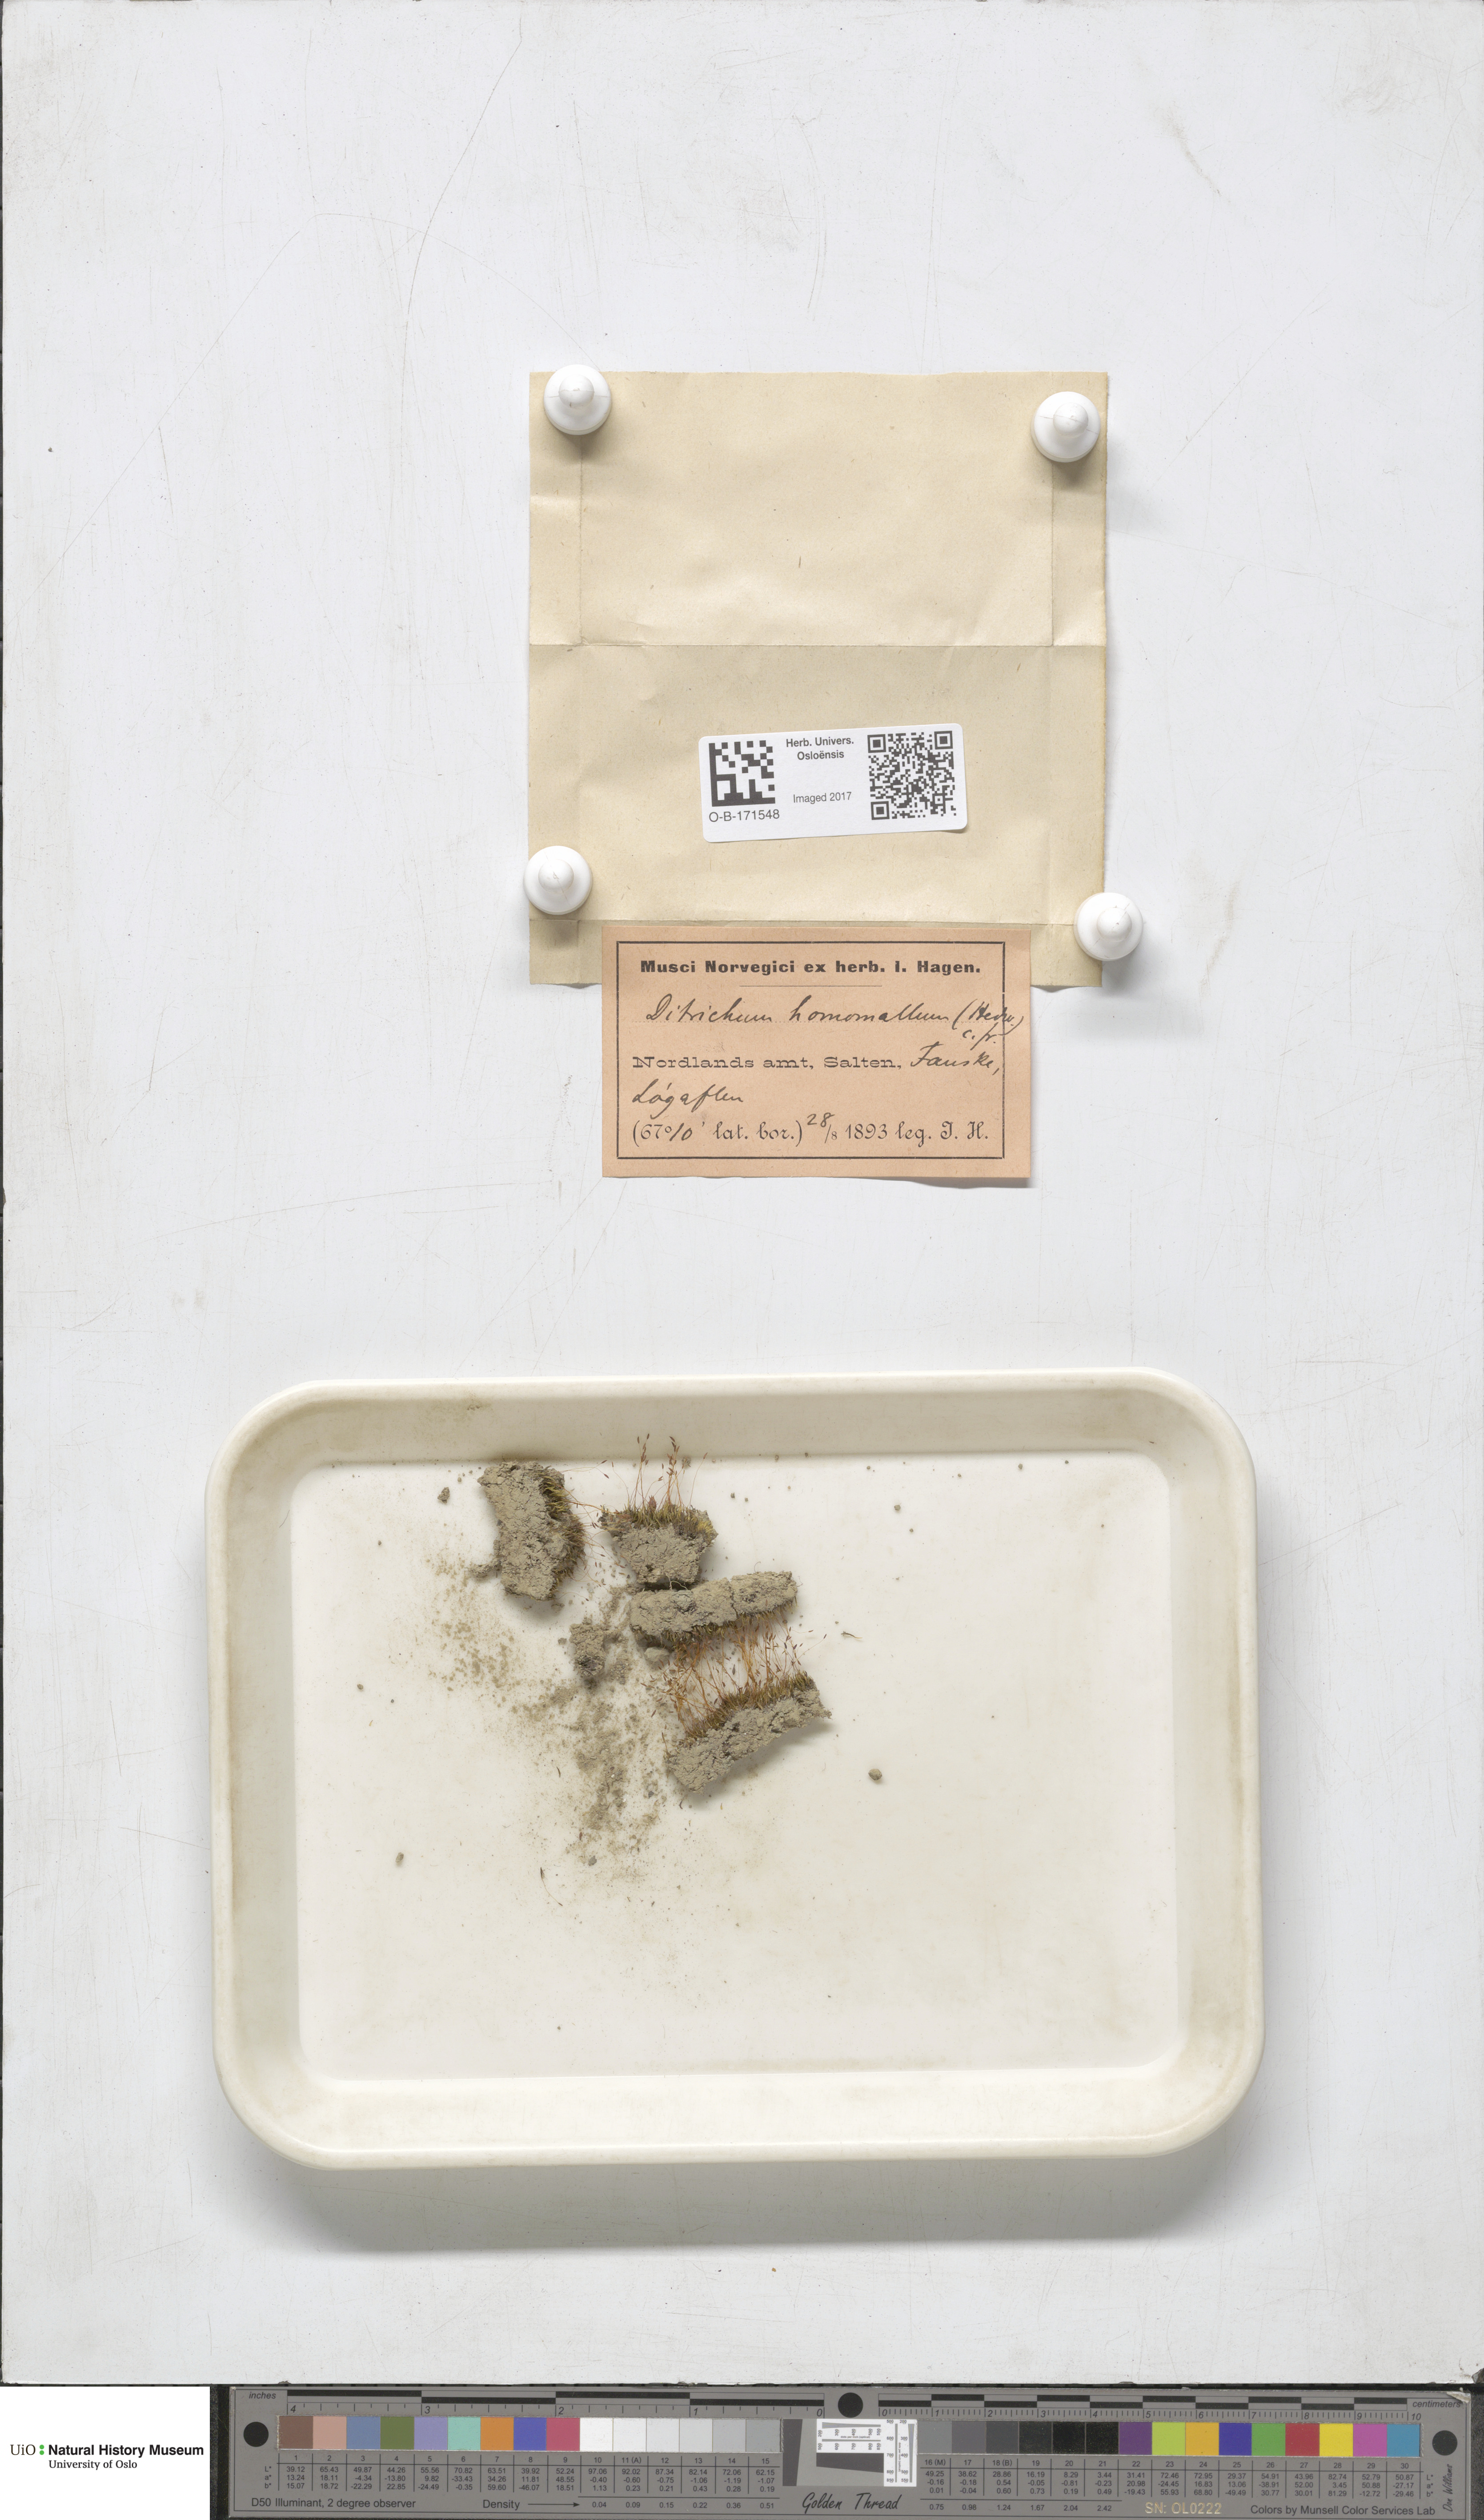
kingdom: Plantae
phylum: Bryophyta
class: Bryopsida
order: Dicranales
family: Ditrichaceae
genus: Ditrichum
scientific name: Ditrichum heteromallum
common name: Curve-leaved ditrichum
